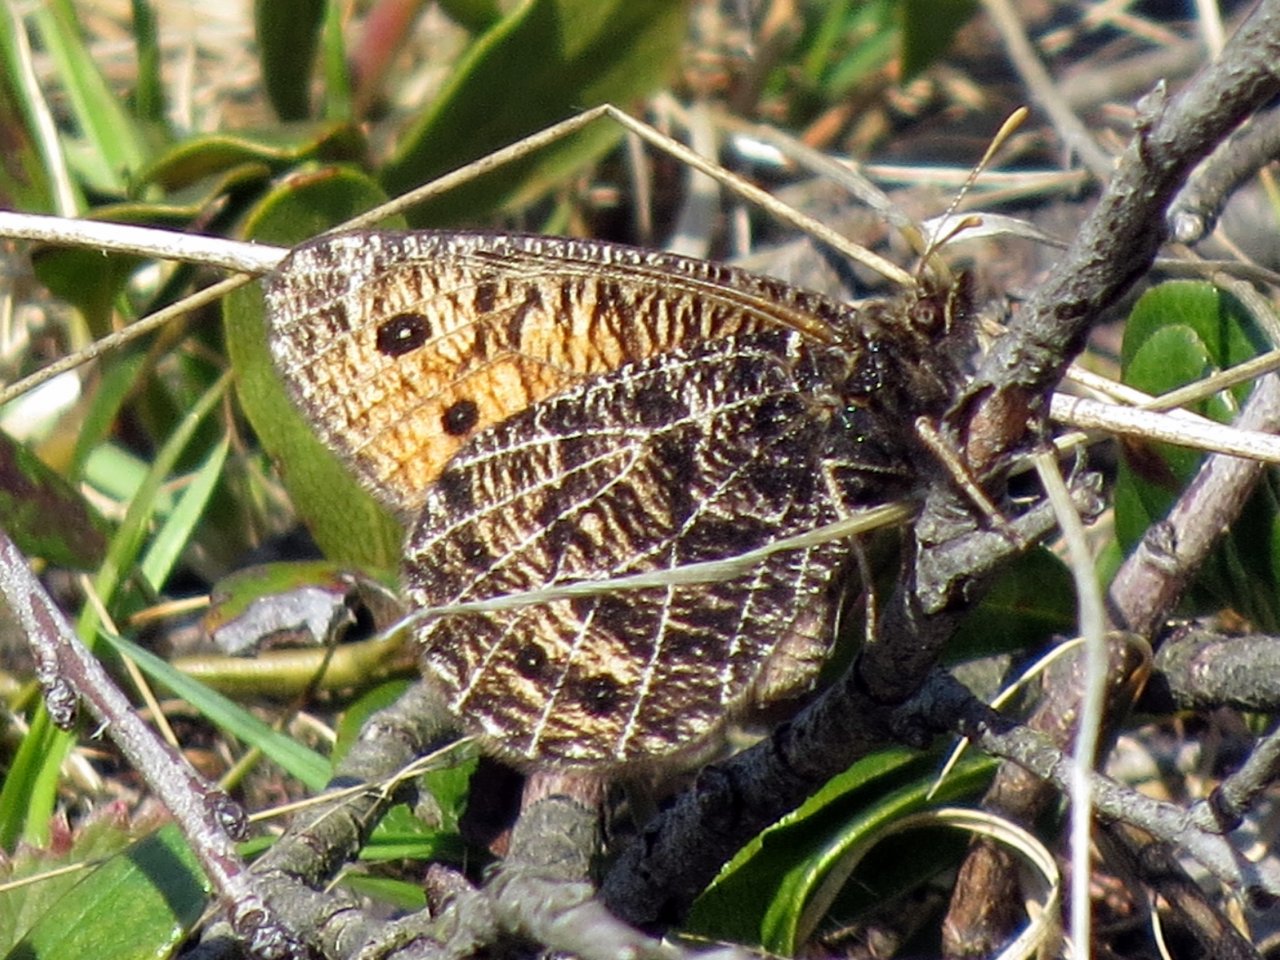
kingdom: Animalia
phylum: Arthropoda
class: Insecta
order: Lepidoptera
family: Nymphalidae
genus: Oeneis
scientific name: Oeneis chryxus
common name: Chryxus Arctic
